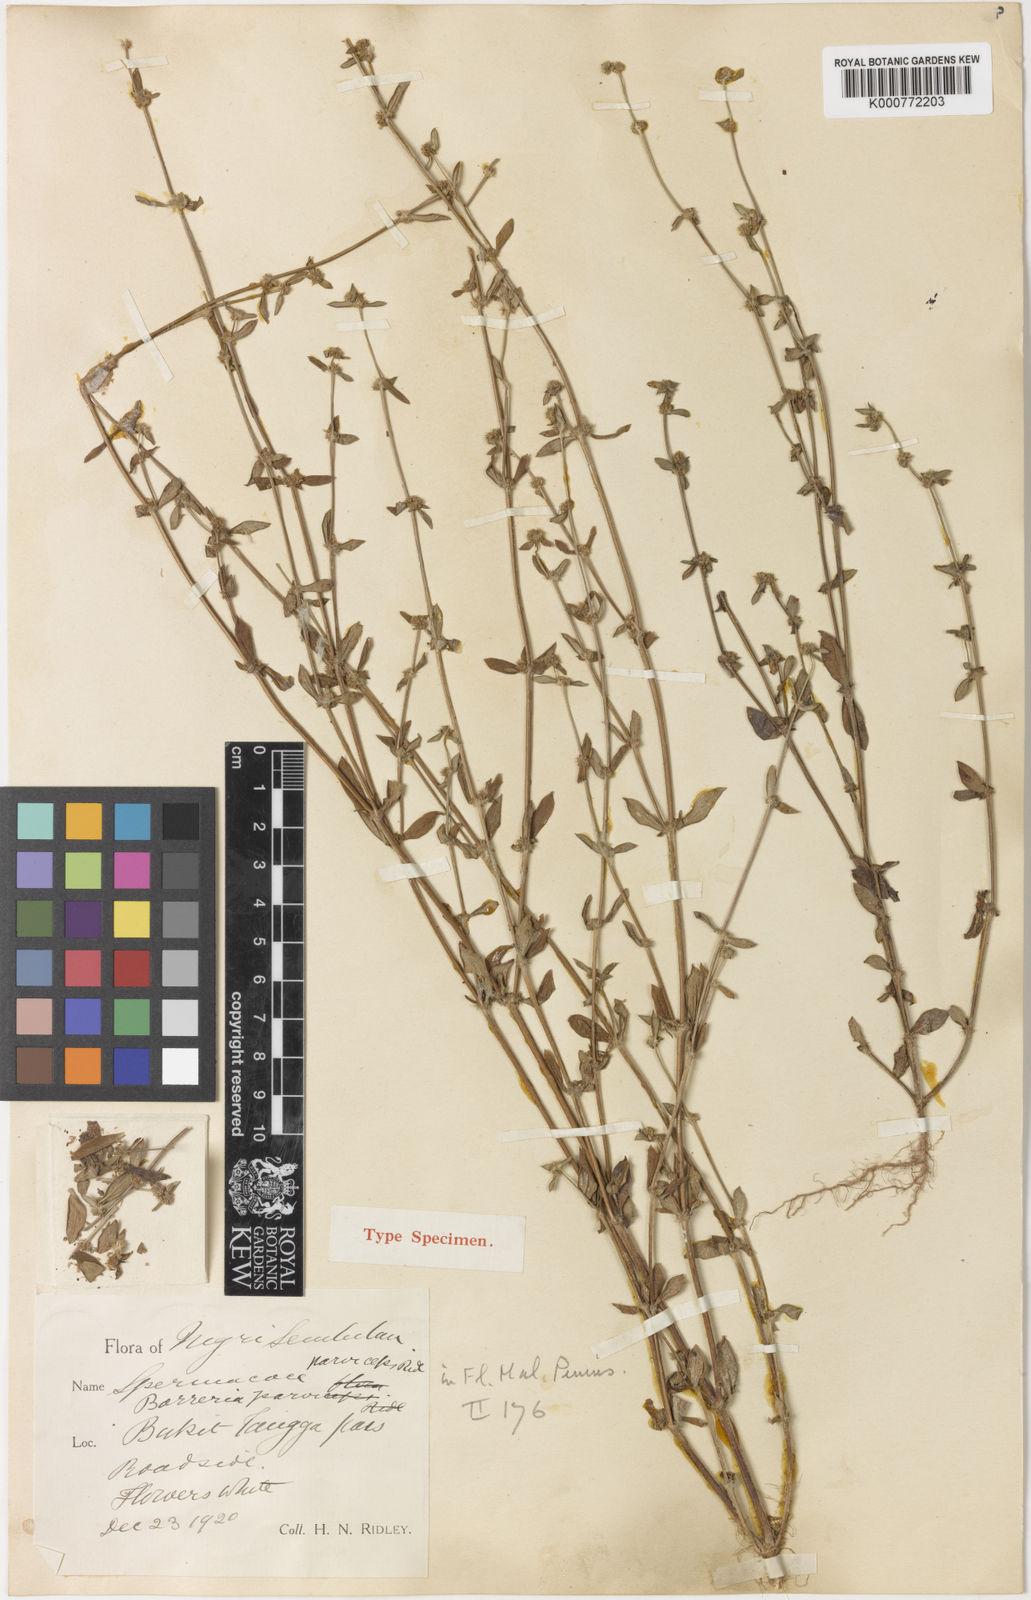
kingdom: Plantae
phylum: Tracheophyta
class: Magnoliopsida
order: Gentianales
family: Rubiaceae
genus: Spermacoce
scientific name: Spermacoce prostrata
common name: Prostrate false buttonweed
